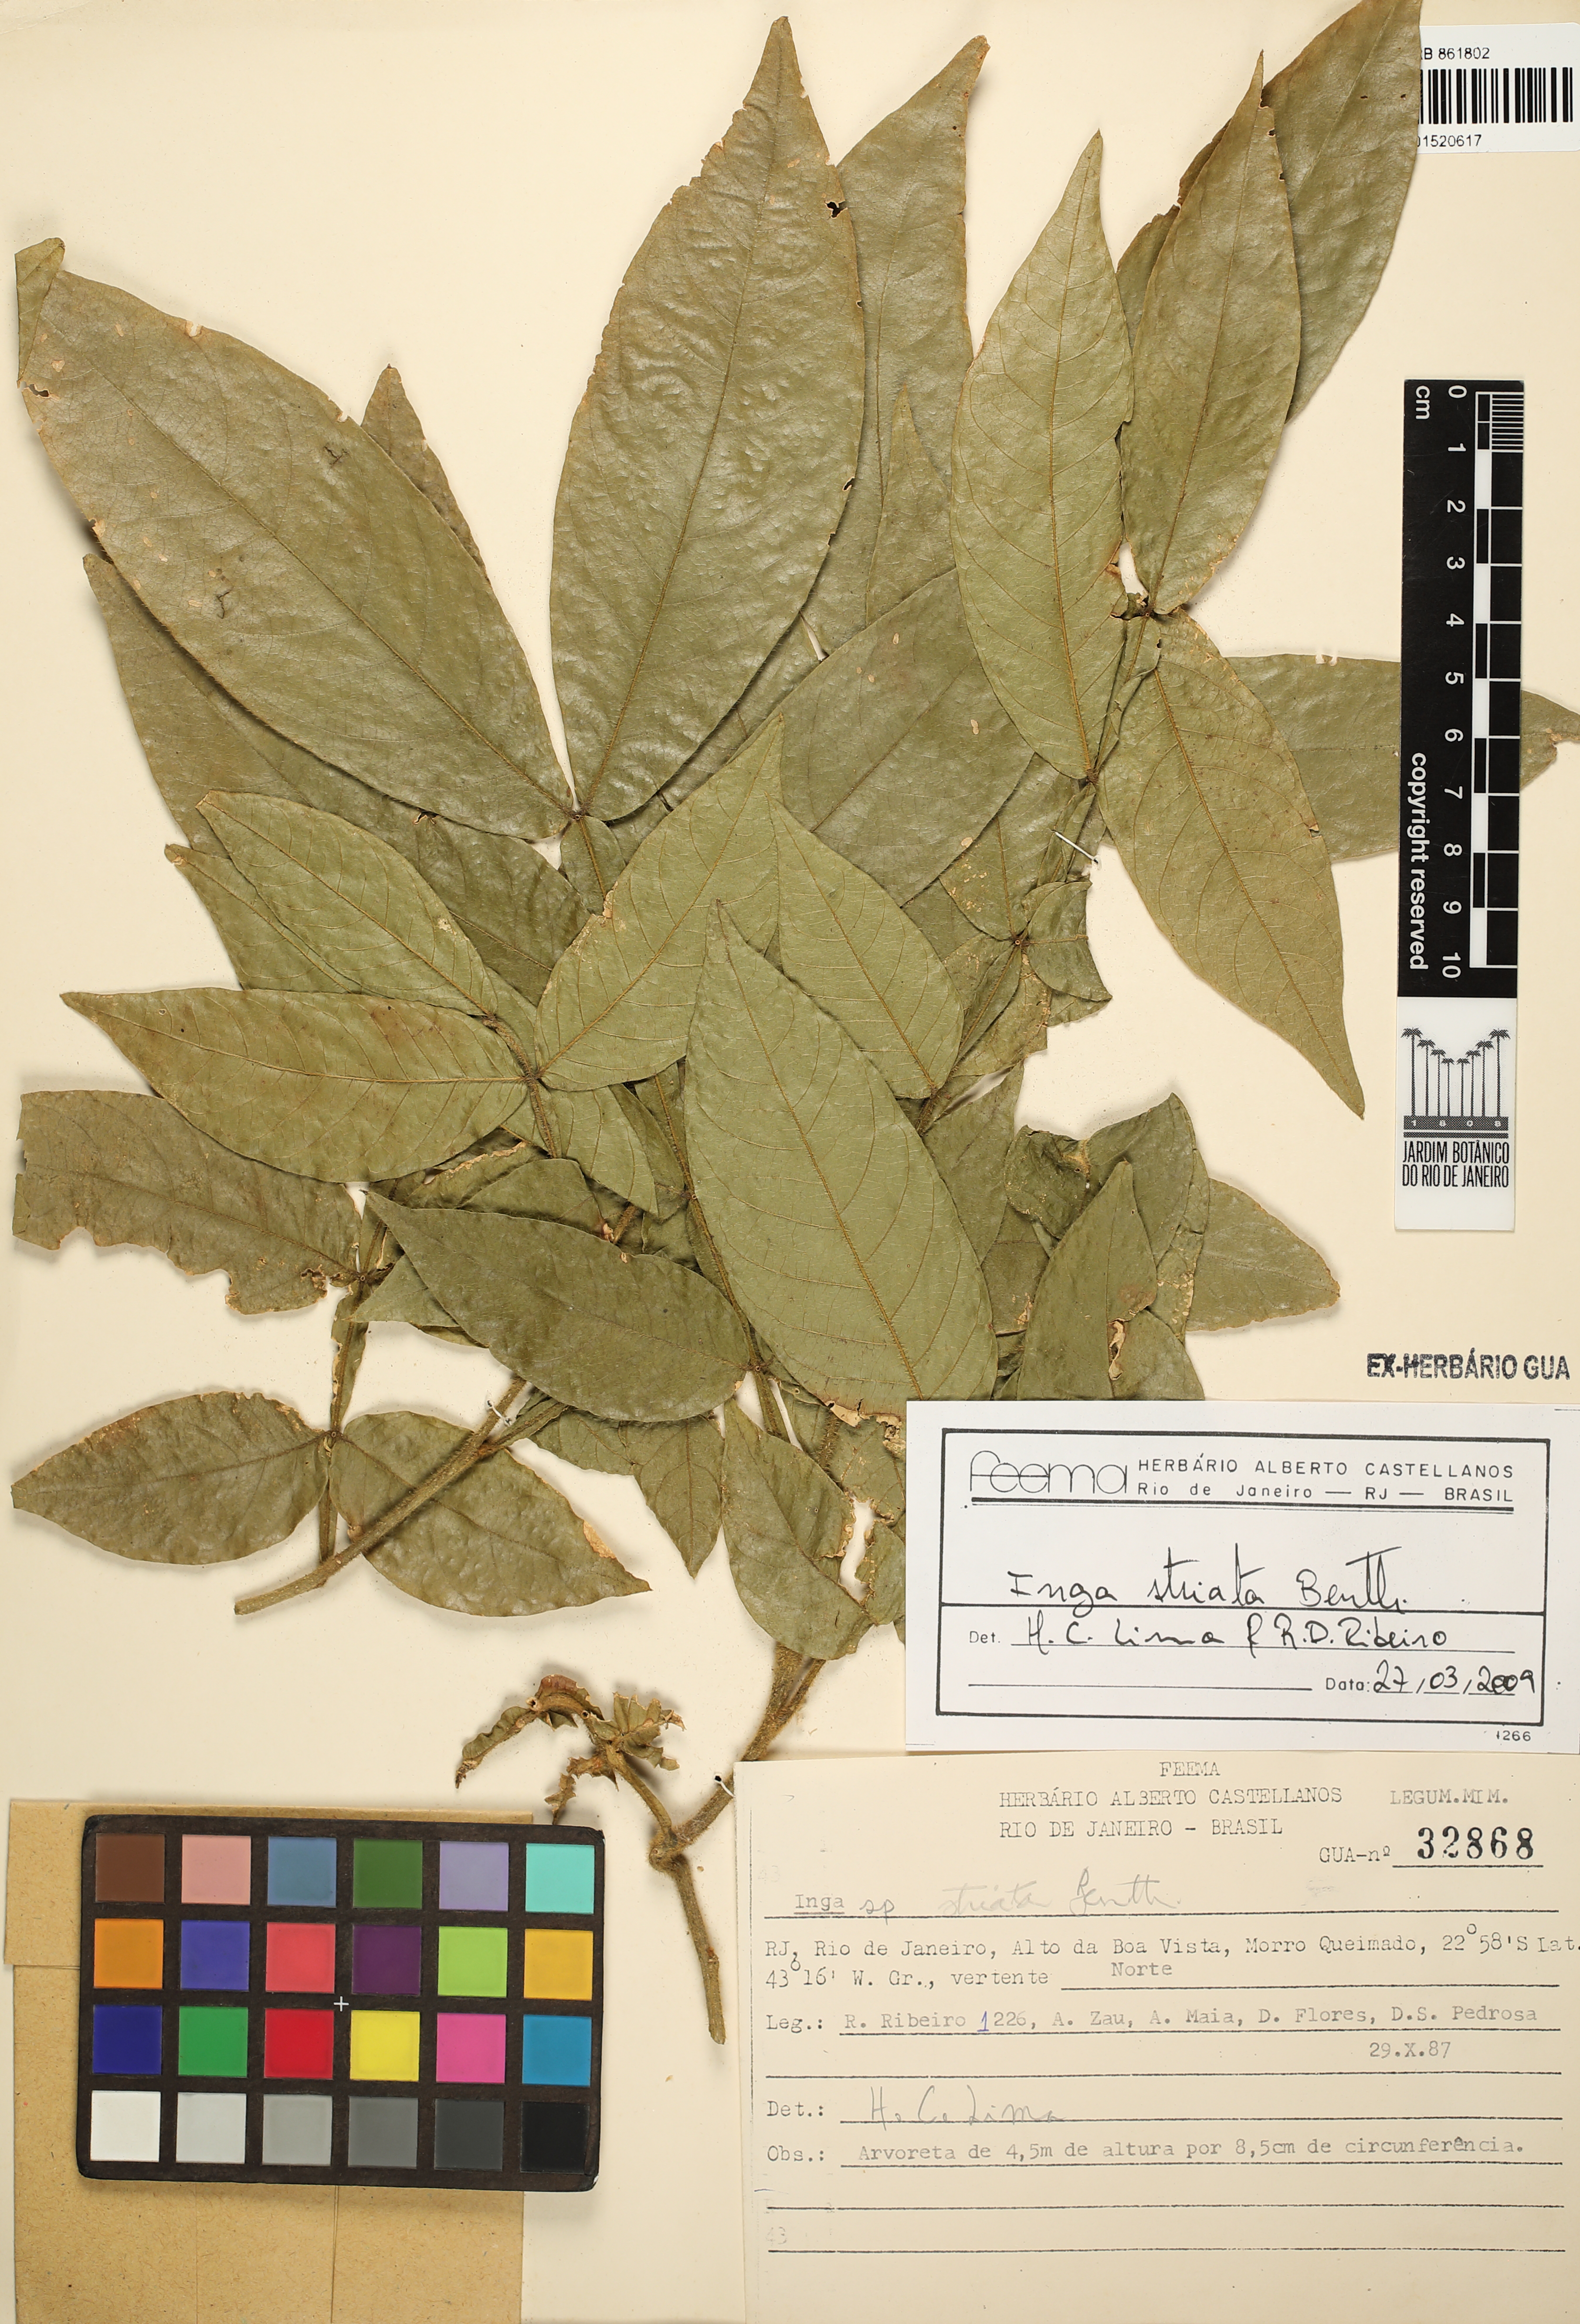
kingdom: Plantae
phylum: Tracheophyta
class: Magnoliopsida
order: Fabales
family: Fabaceae
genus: Inga
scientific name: Inga striata
